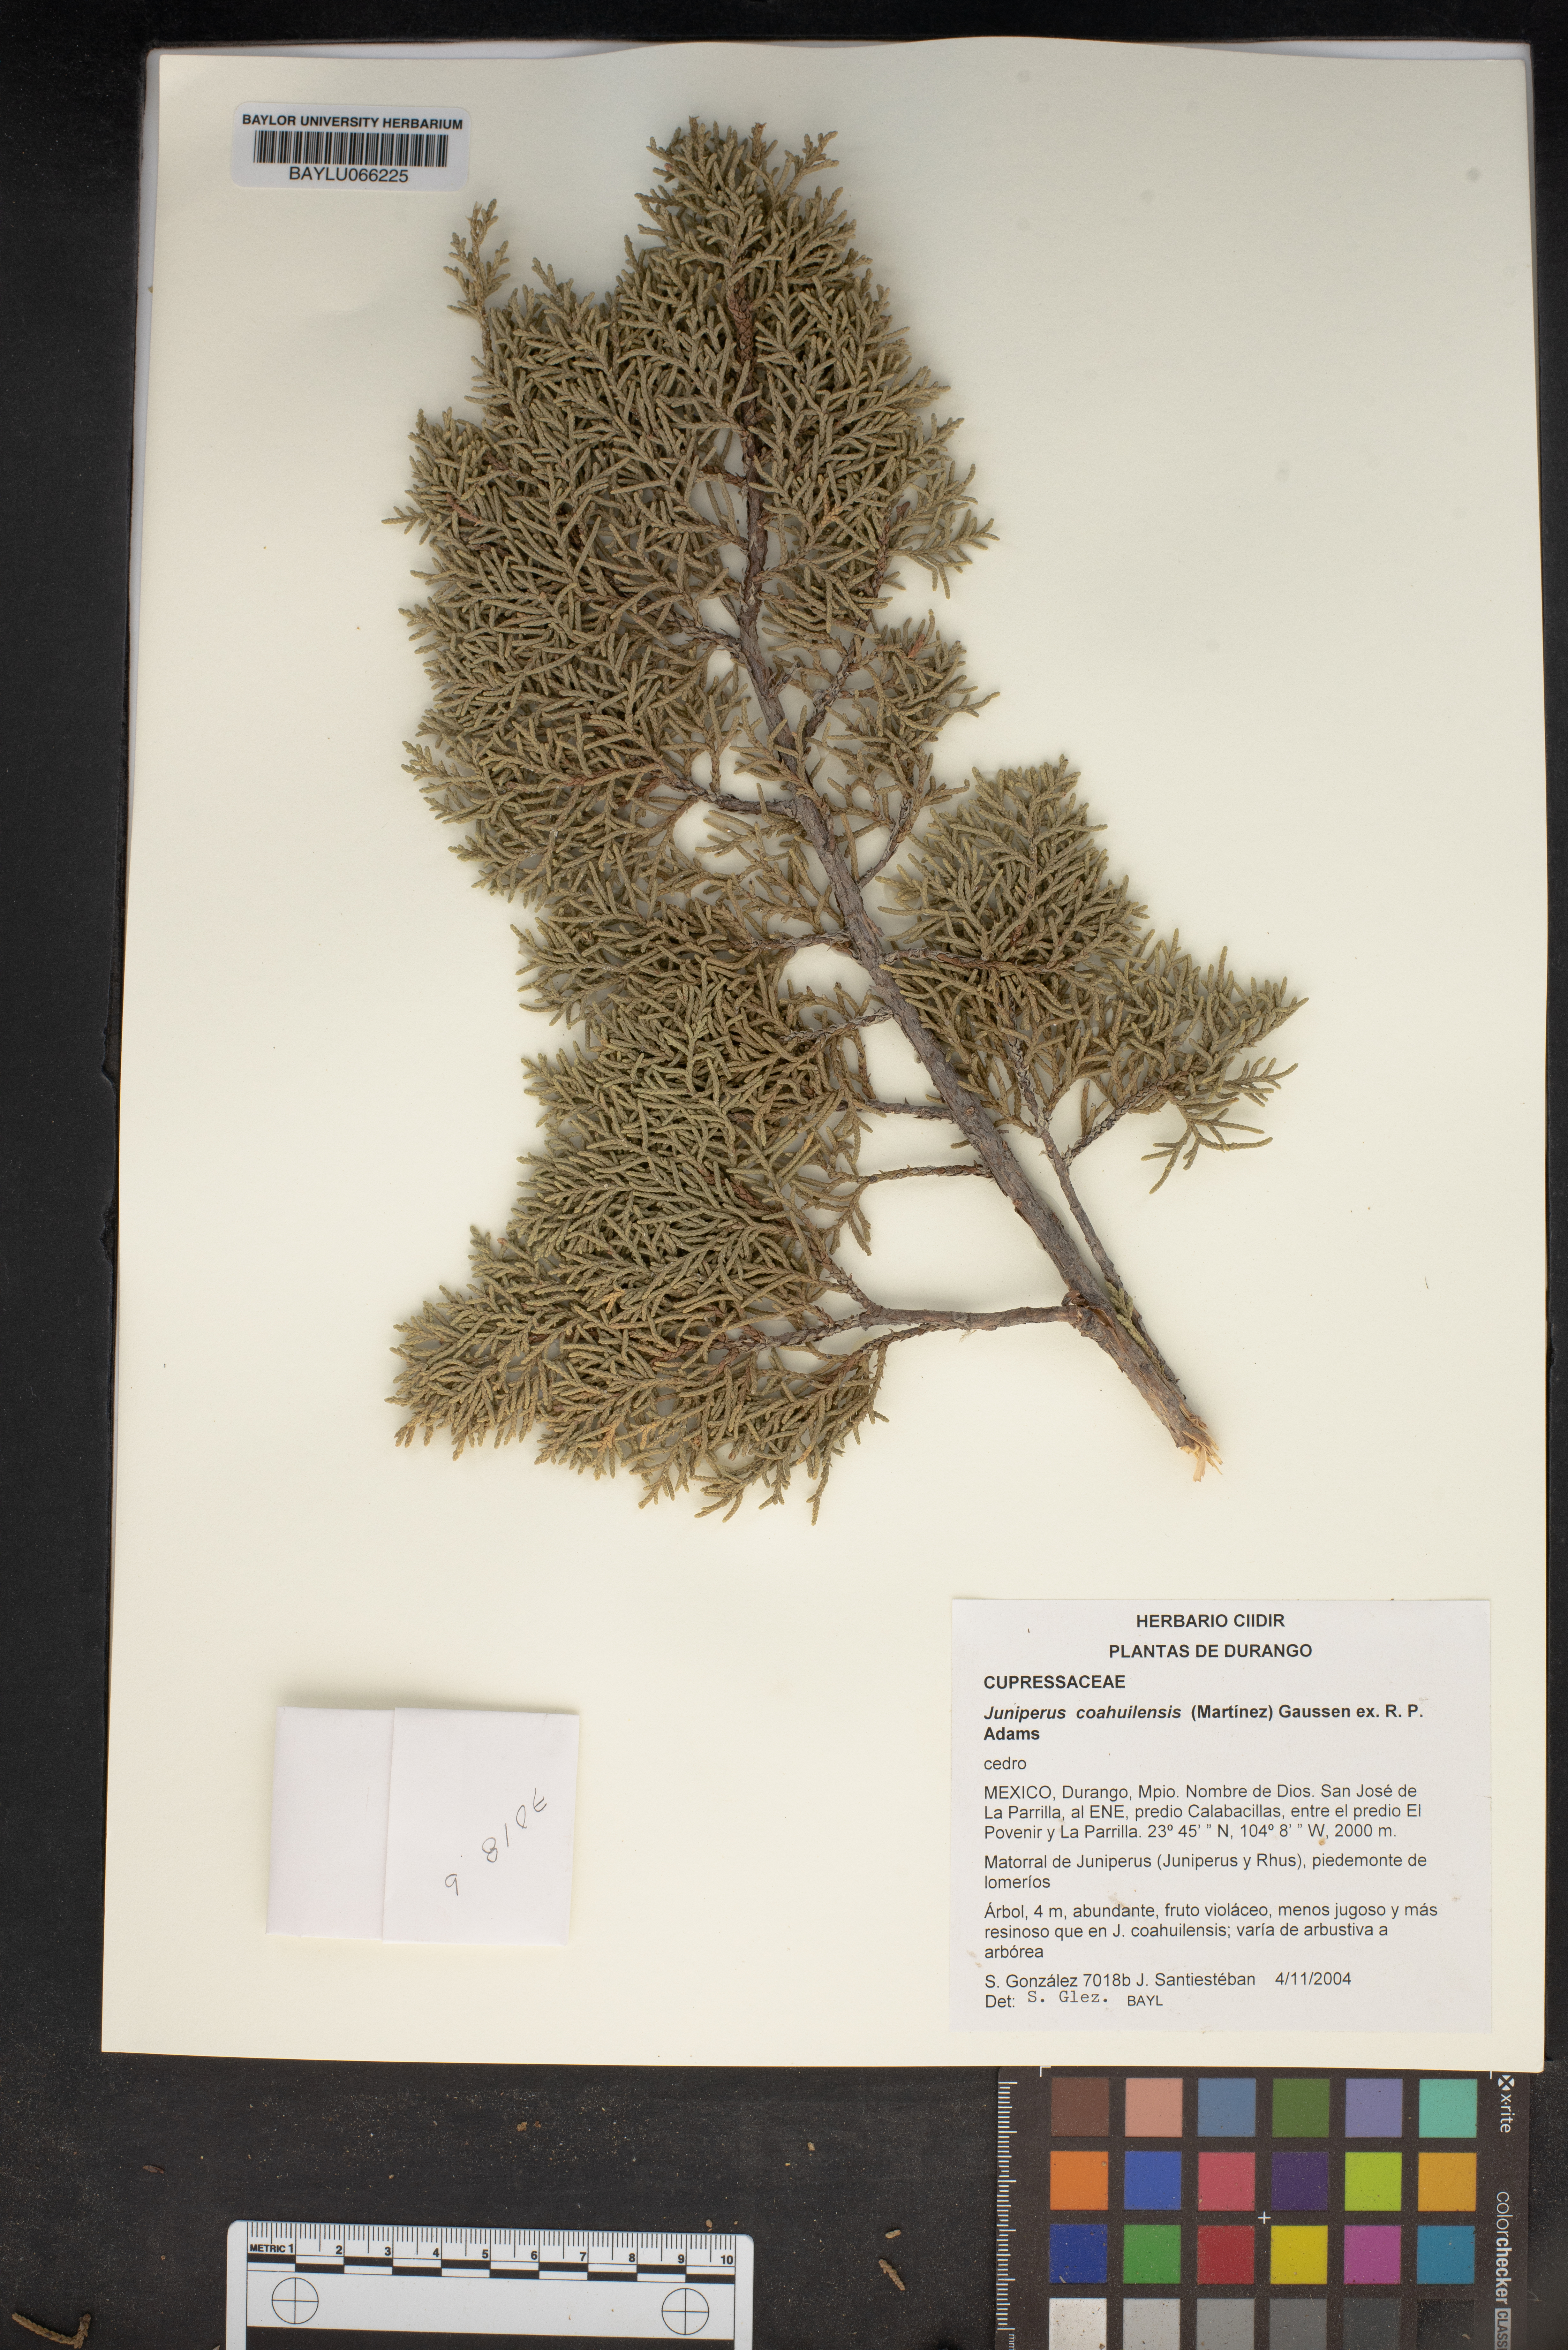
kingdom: Plantae
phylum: Tracheophyta
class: Pinopsida
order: Pinales
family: Cupressaceae
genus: Juniperus
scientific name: Juniperus coahuilensis
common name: Roseberry
